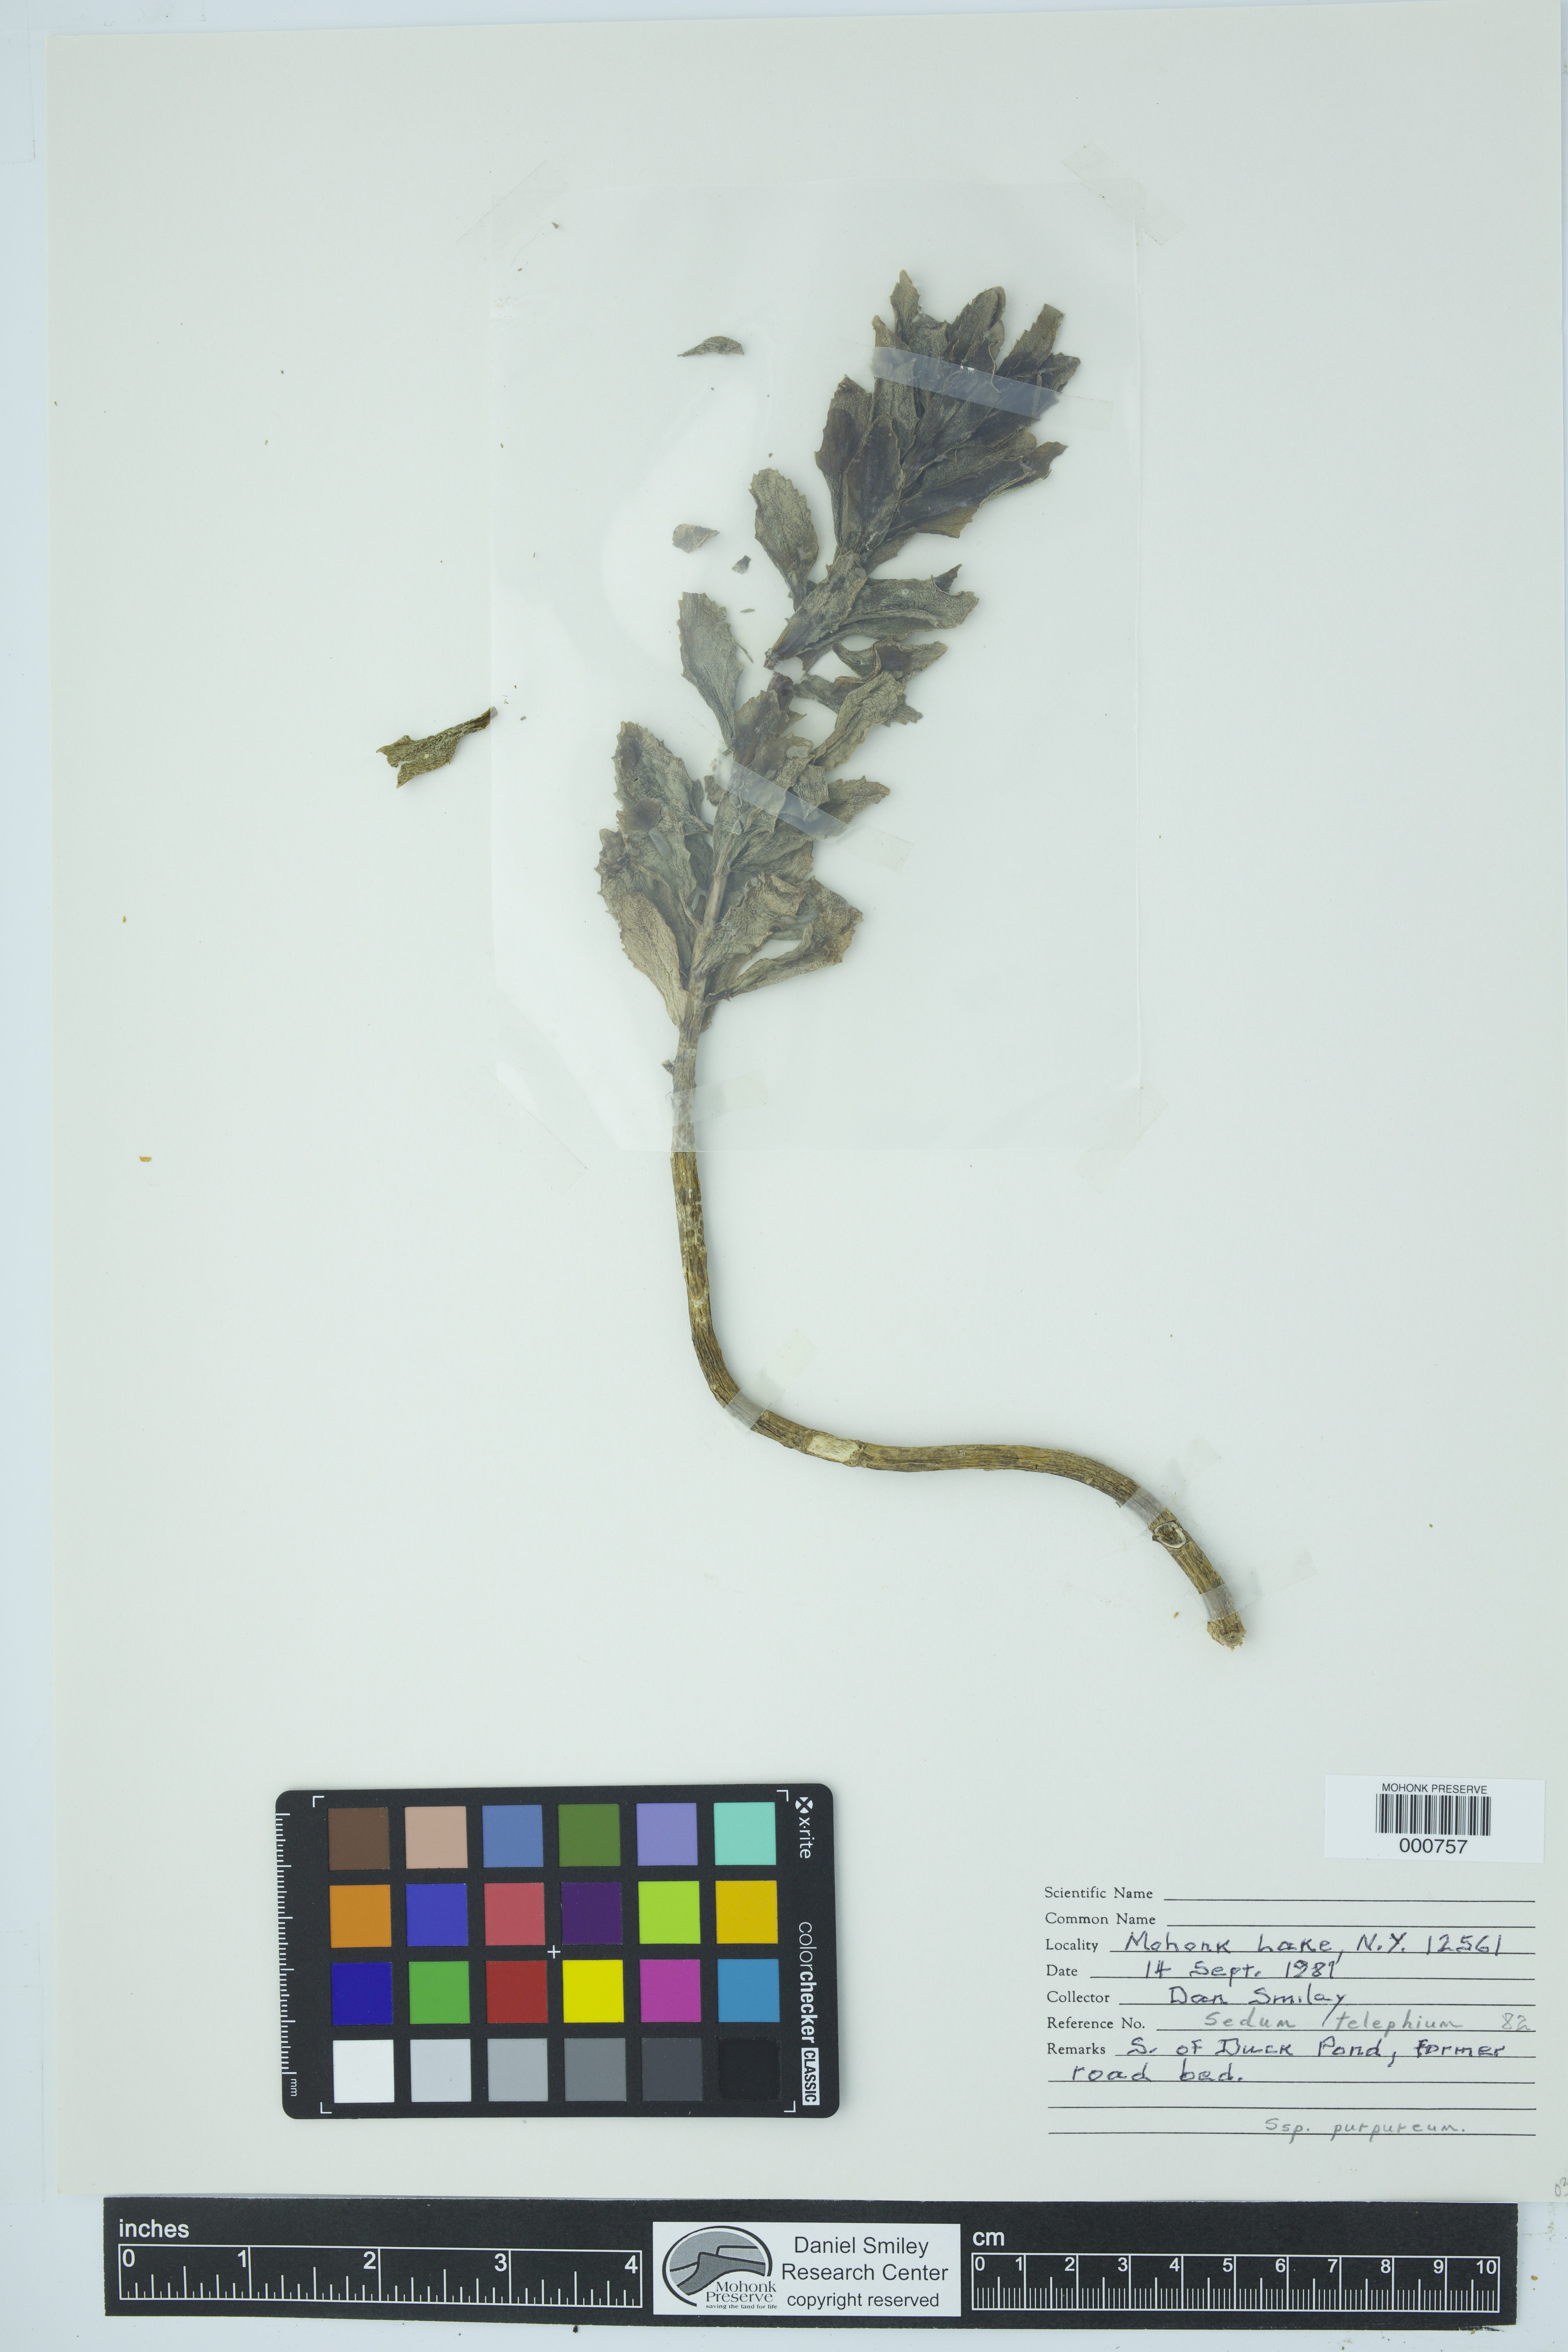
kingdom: Plantae
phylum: Tracheophyta
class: Magnoliopsida
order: Saxifragales
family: Crassulaceae
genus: Hylotelephium
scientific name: Hylotelephium telephium
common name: Live-forever
